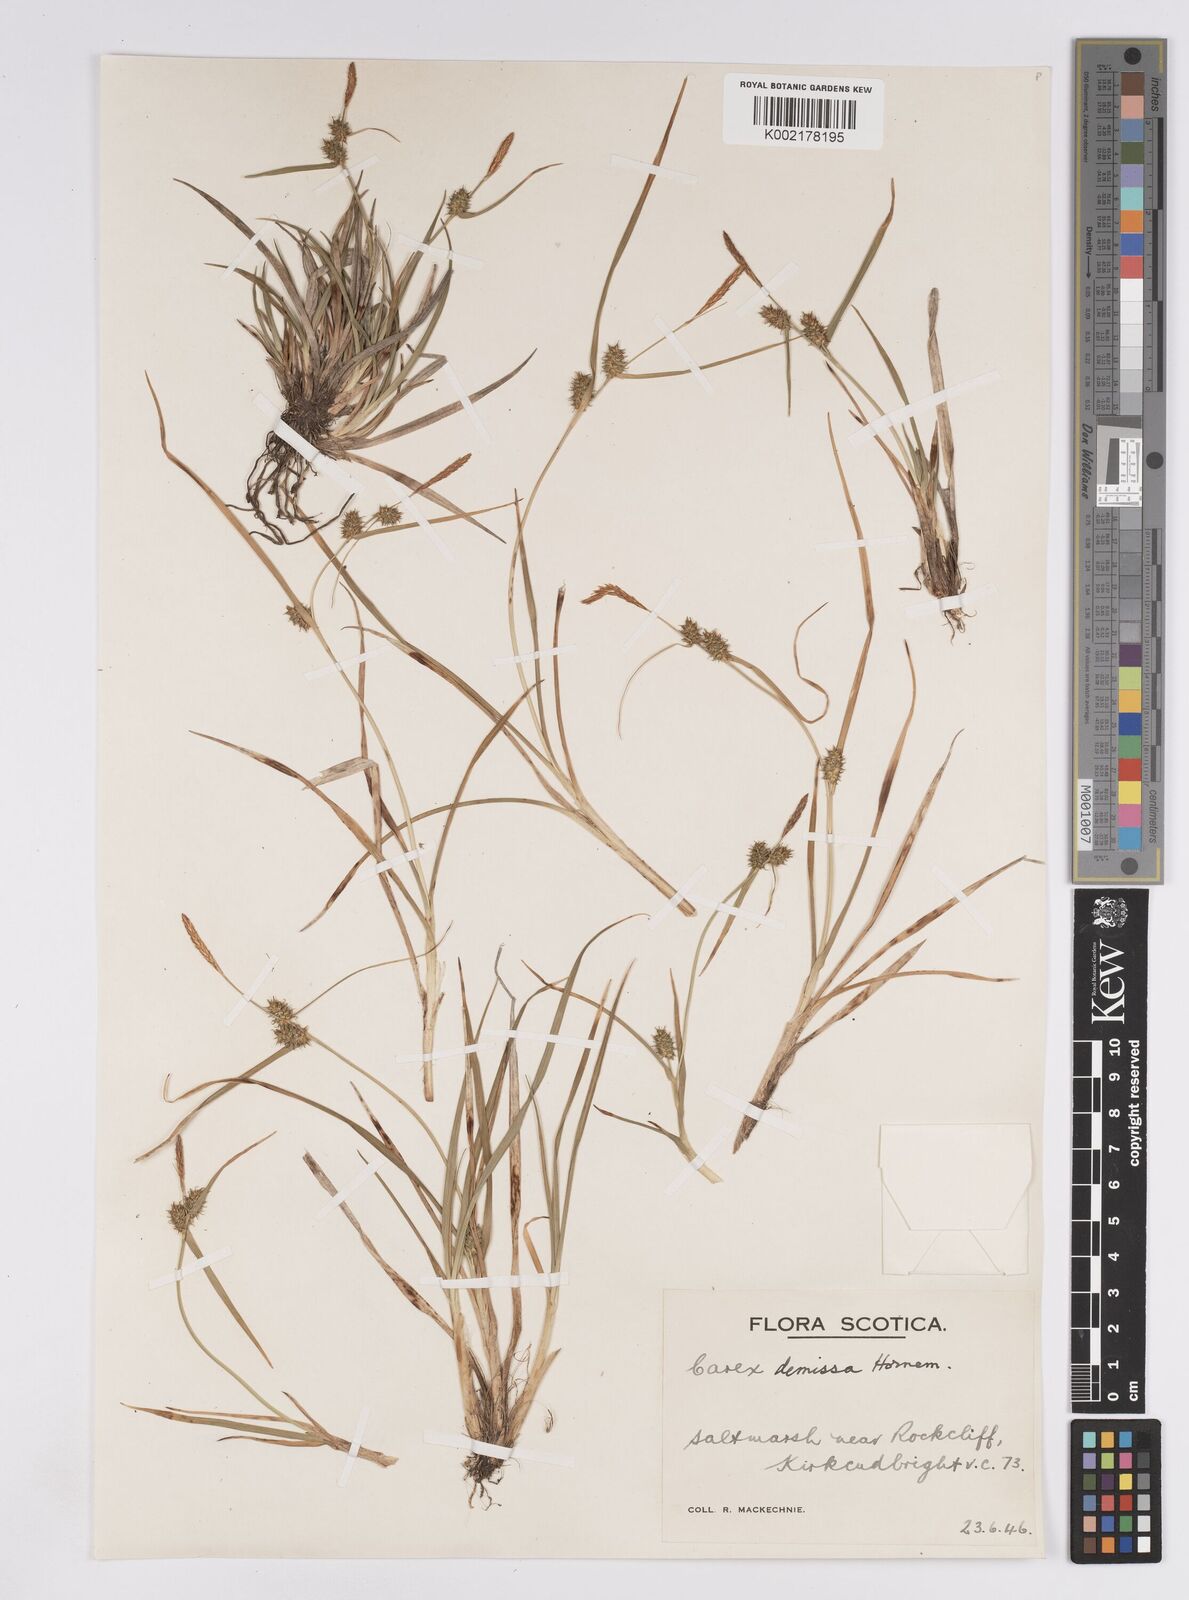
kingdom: Plantae
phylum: Tracheophyta
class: Liliopsida
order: Poales
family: Cyperaceae
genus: Carex
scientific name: Carex demissa
